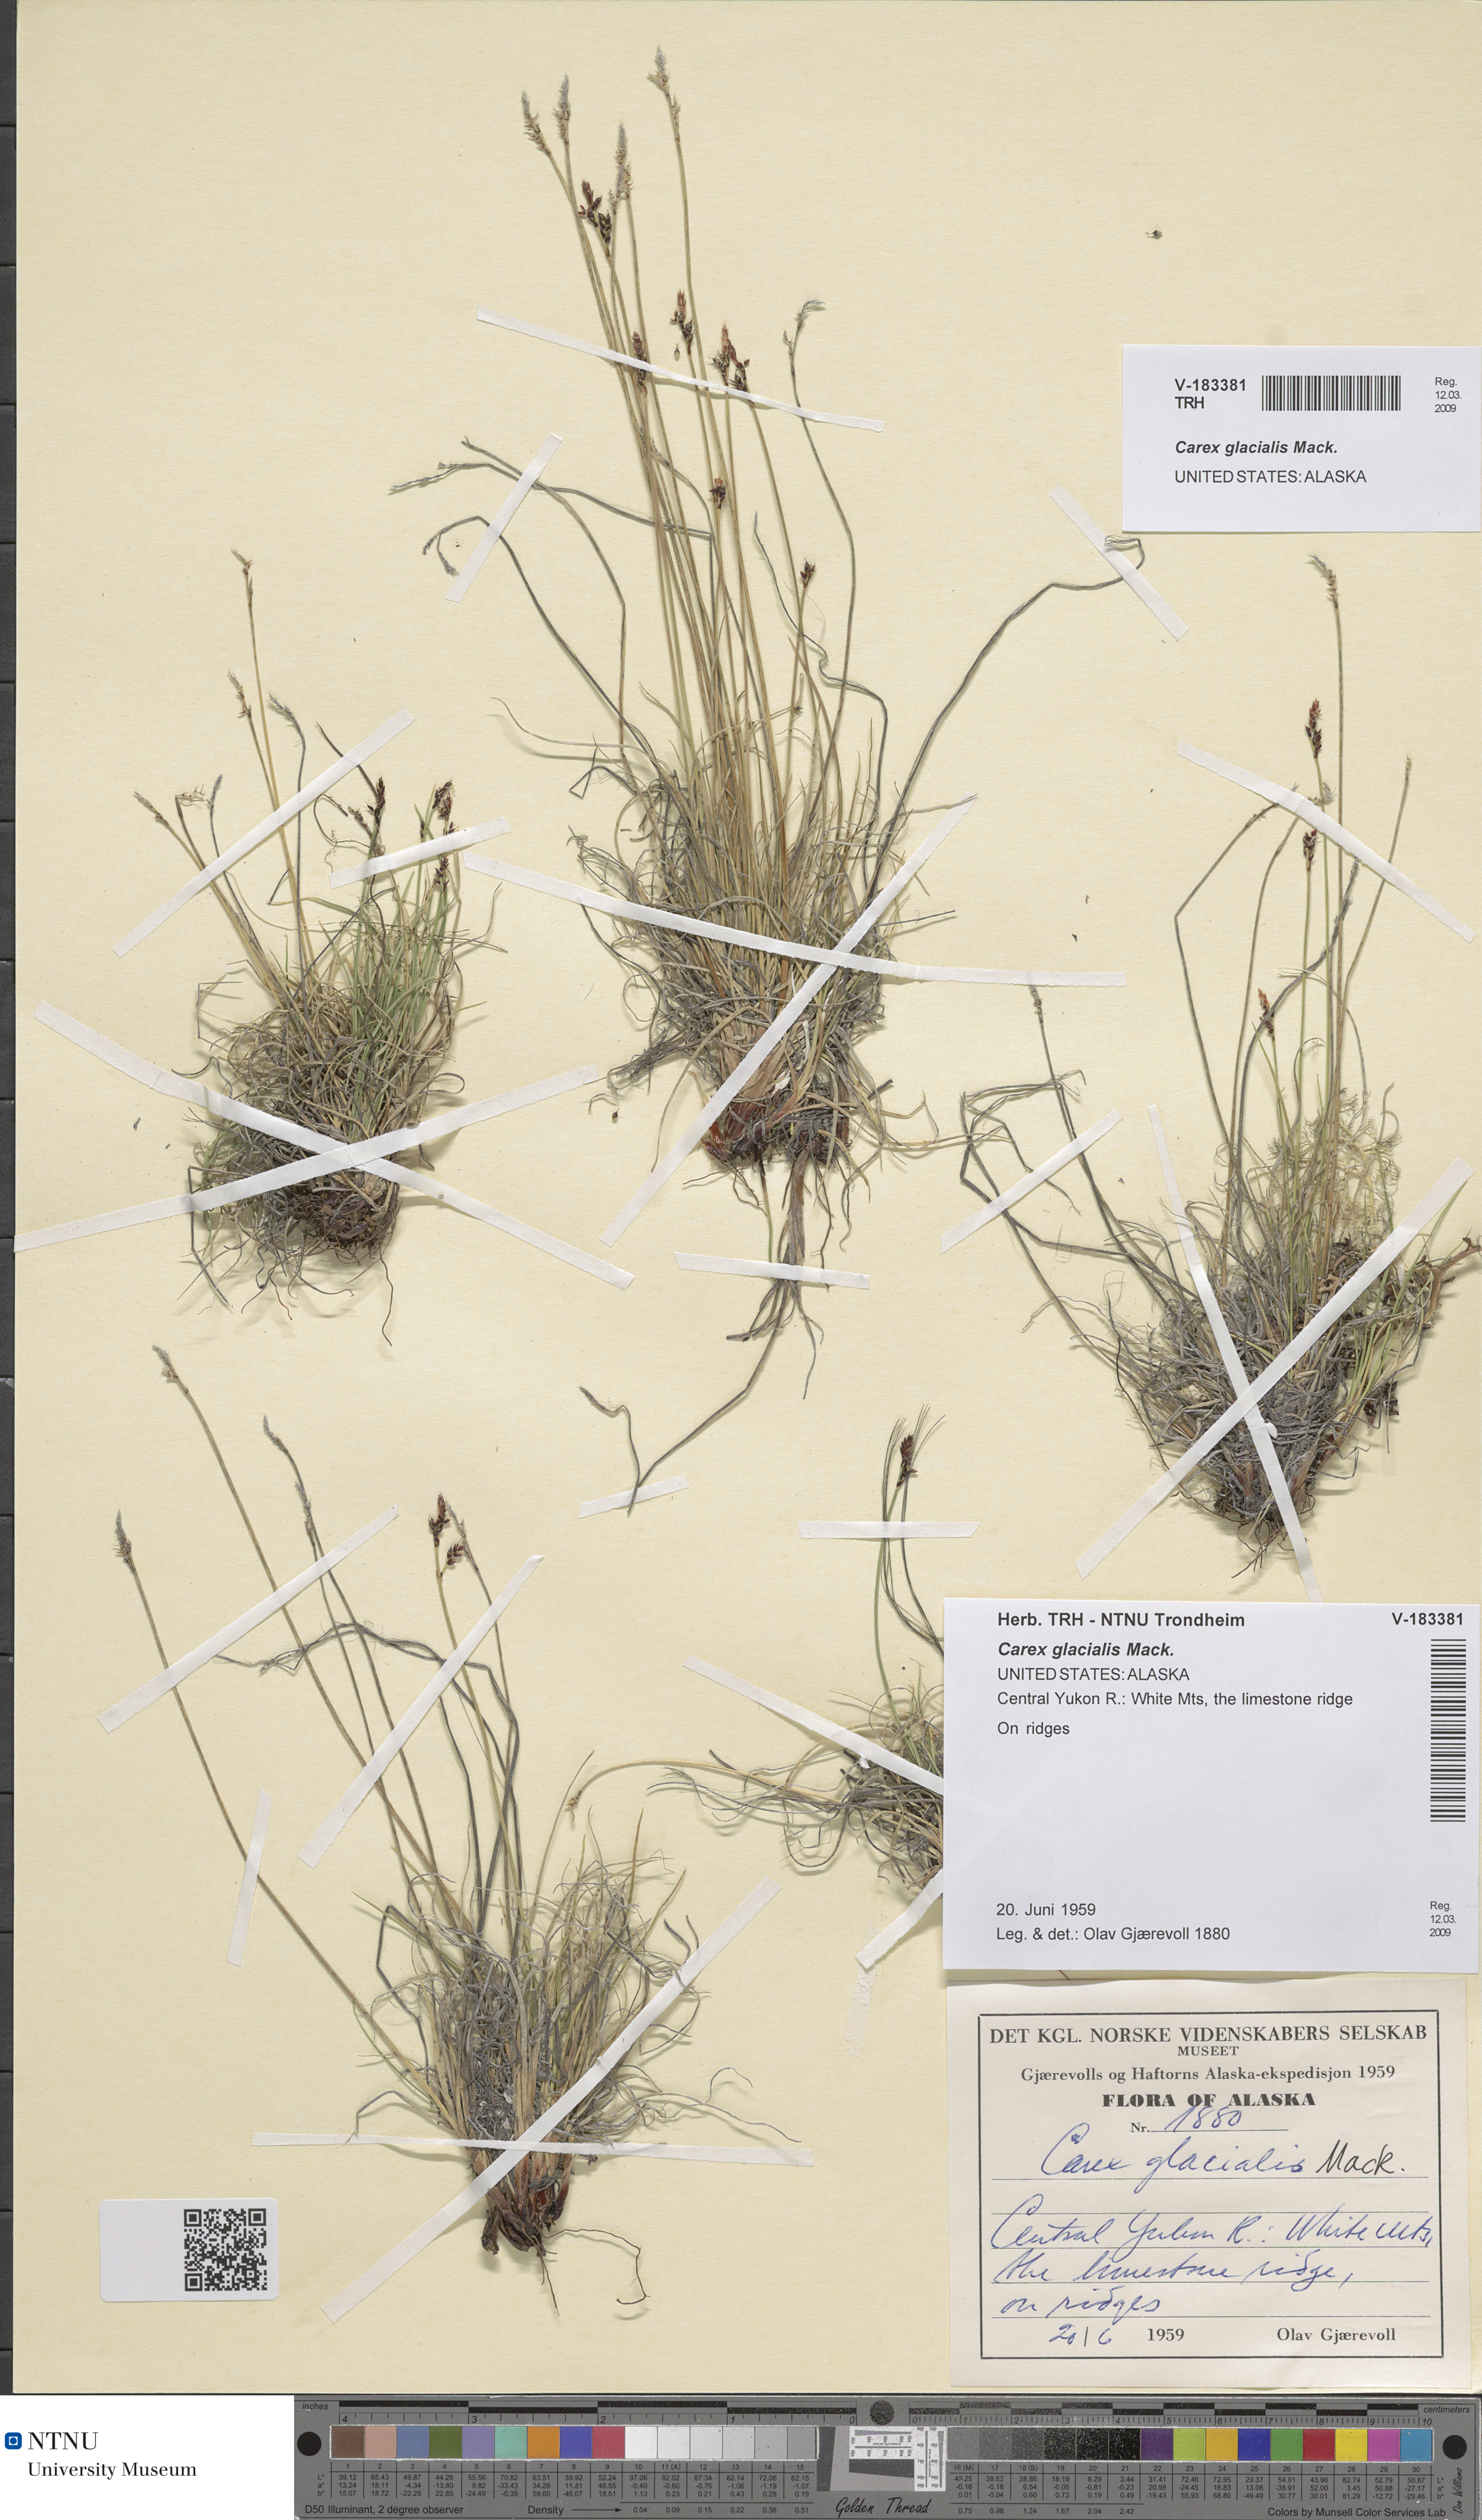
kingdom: Plantae
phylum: Tracheophyta
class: Liliopsida
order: Poales
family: Cyperaceae
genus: Carex
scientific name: Carex glacialis
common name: Newfoundland sedge
